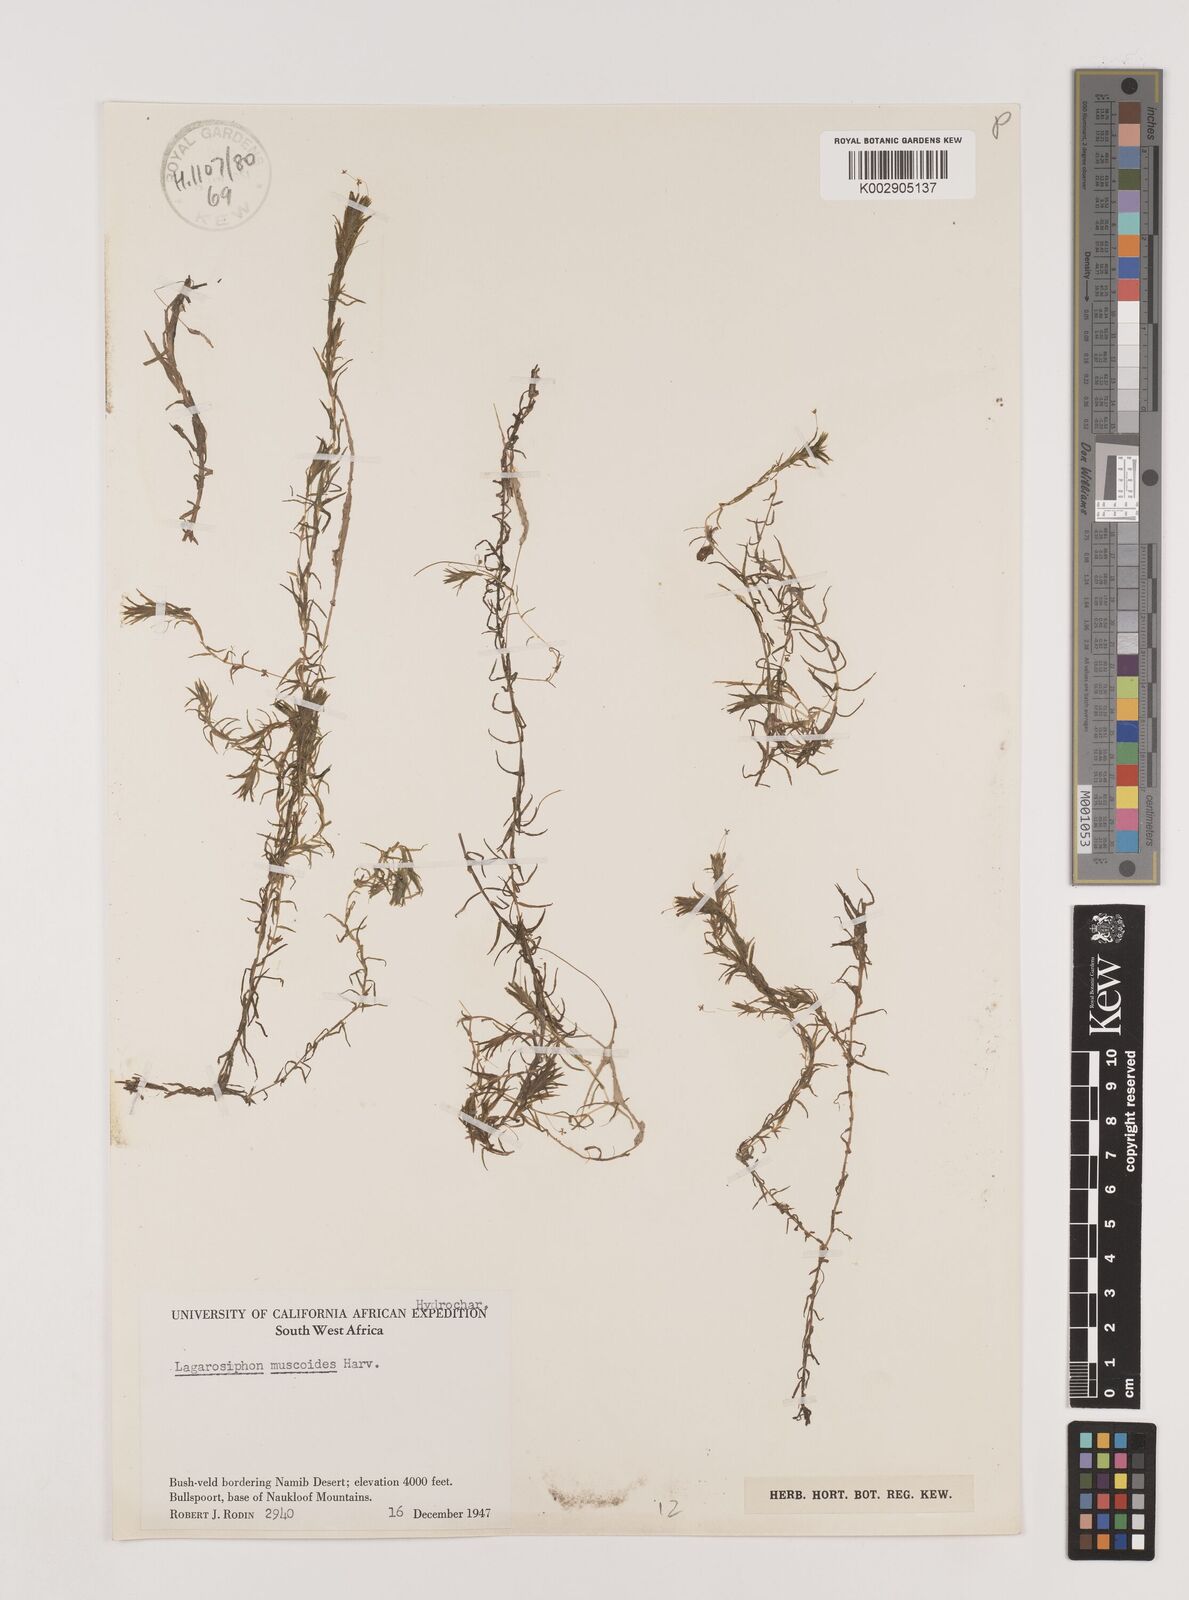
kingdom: Plantae
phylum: Tracheophyta
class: Liliopsida
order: Alismatales
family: Hydrocharitaceae
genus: Lagarosiphon
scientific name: Lagarosiphon muscoides
